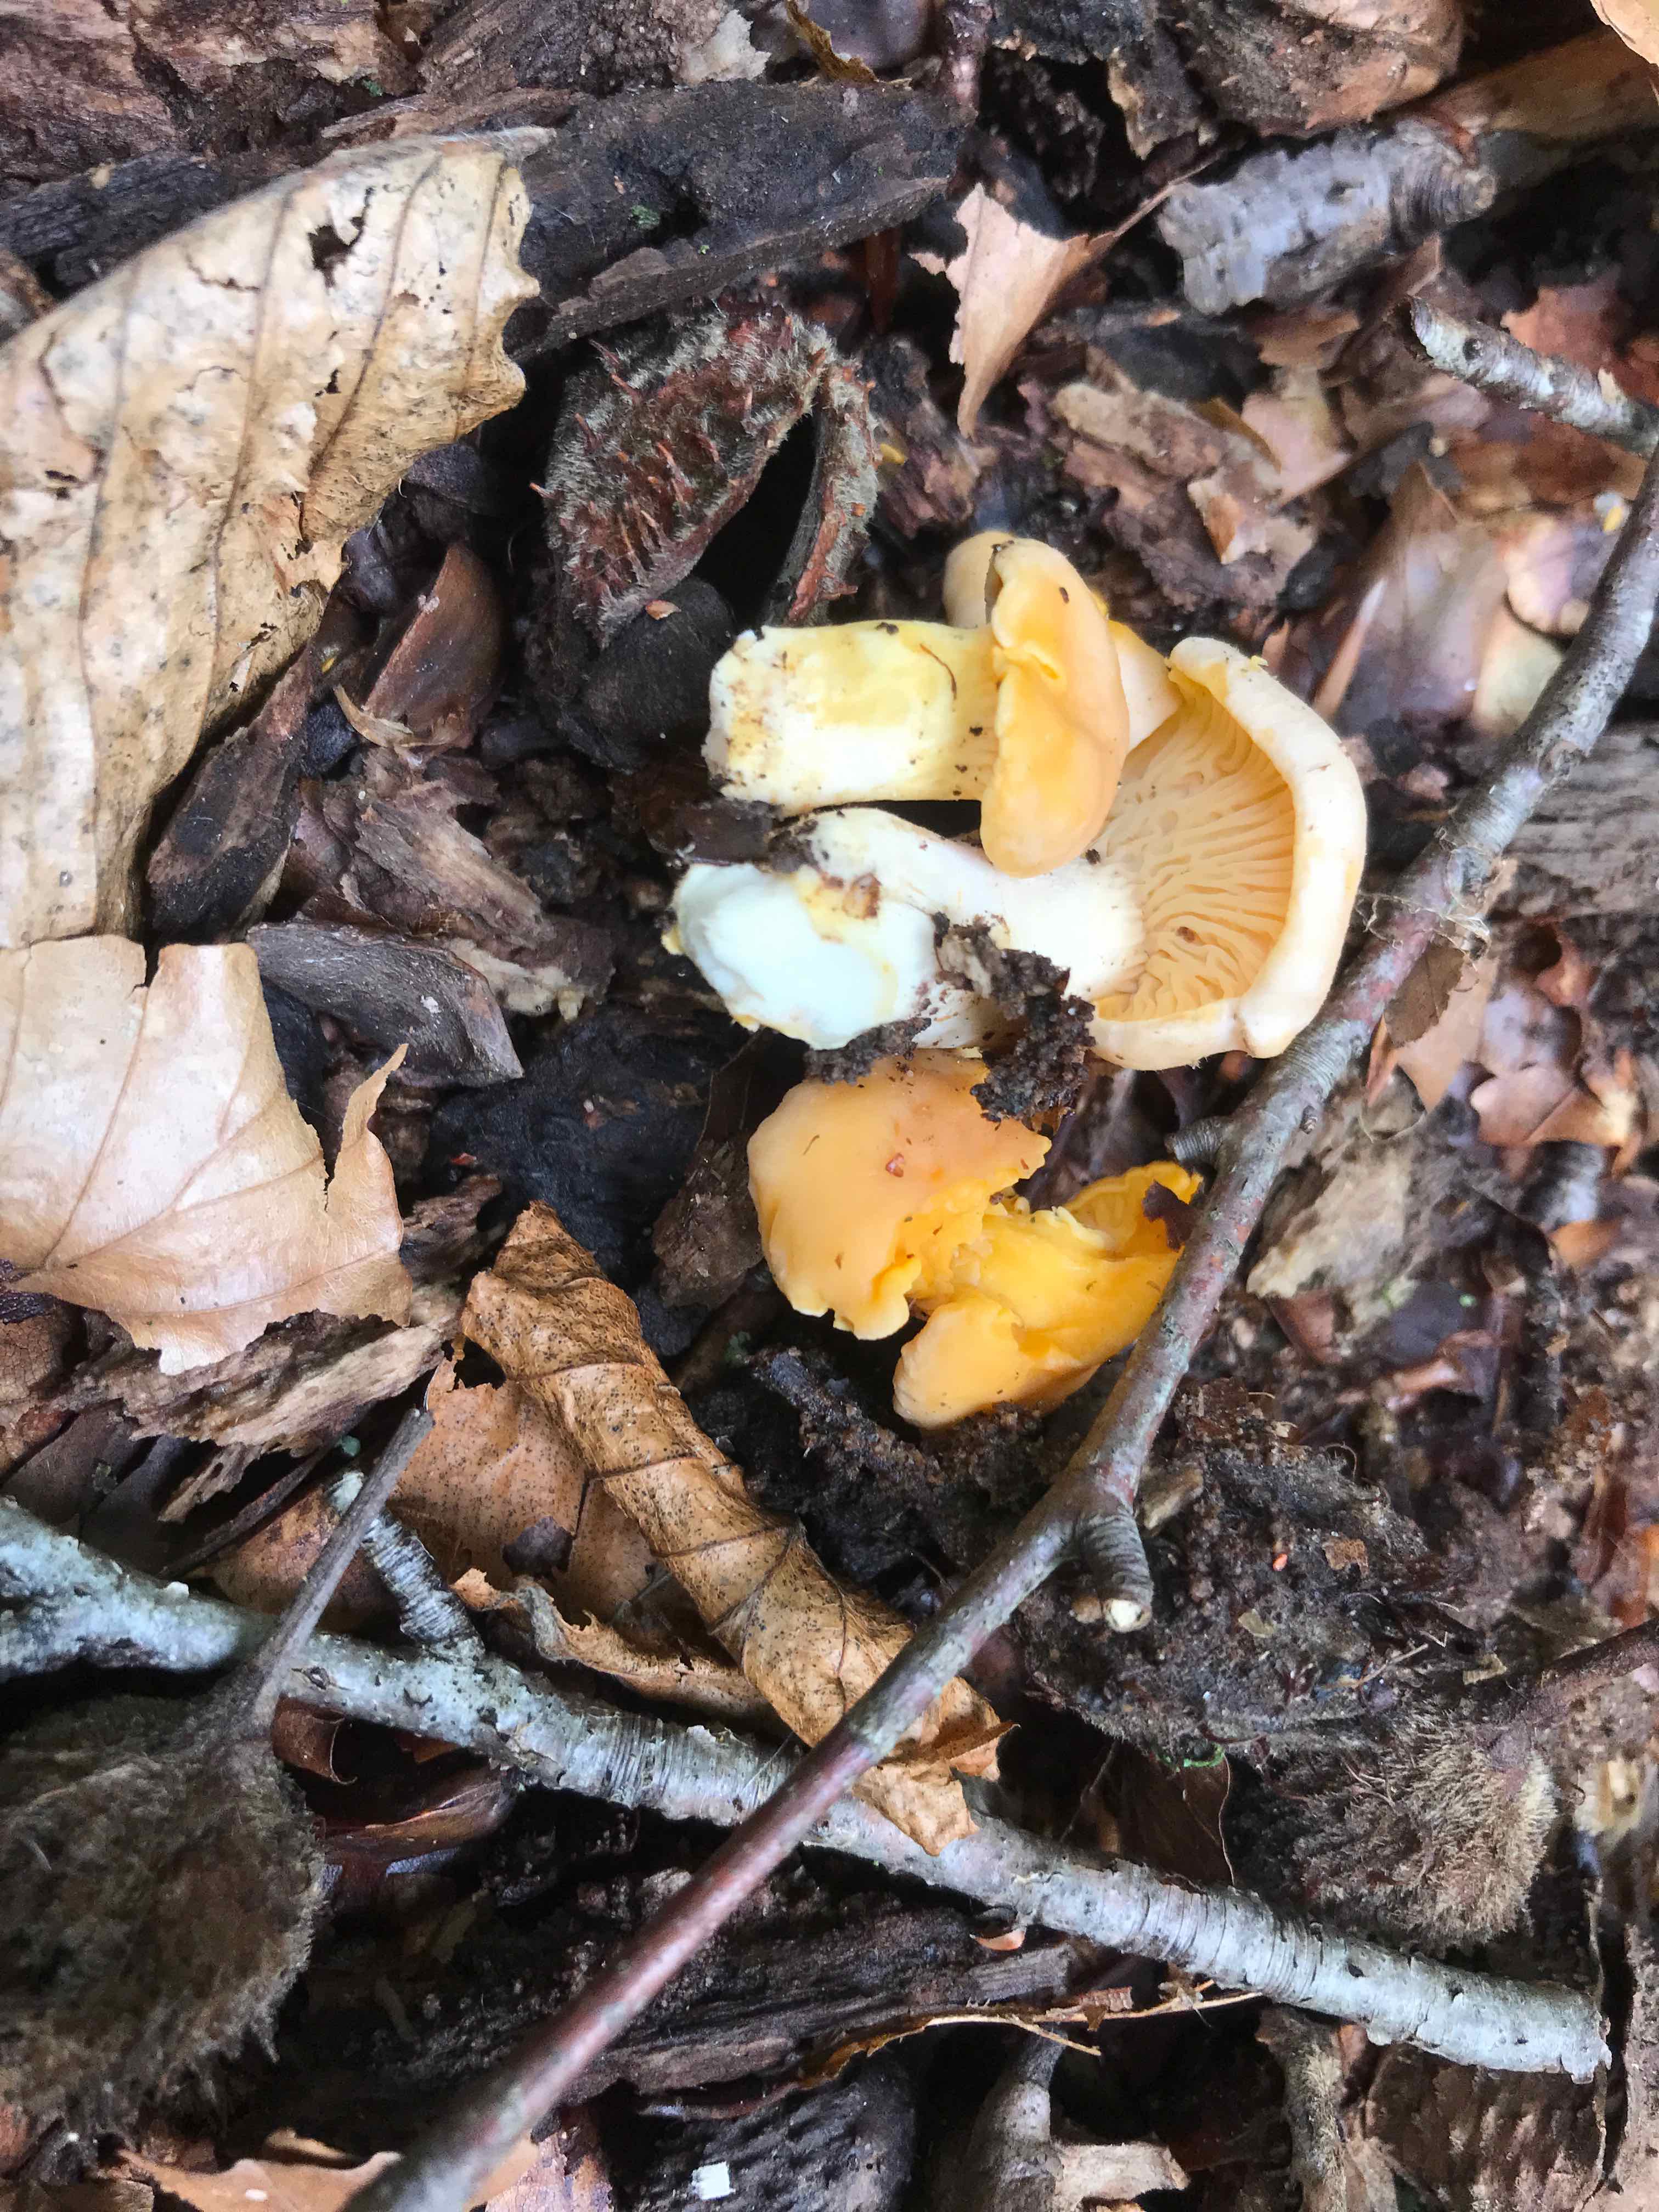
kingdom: Fungi
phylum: Basidiomycota
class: Agaricomycetes
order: Cantharellales
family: Hydnaceae
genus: Cantharellus
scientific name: Cantharellus pallens
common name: bleg kantarel
